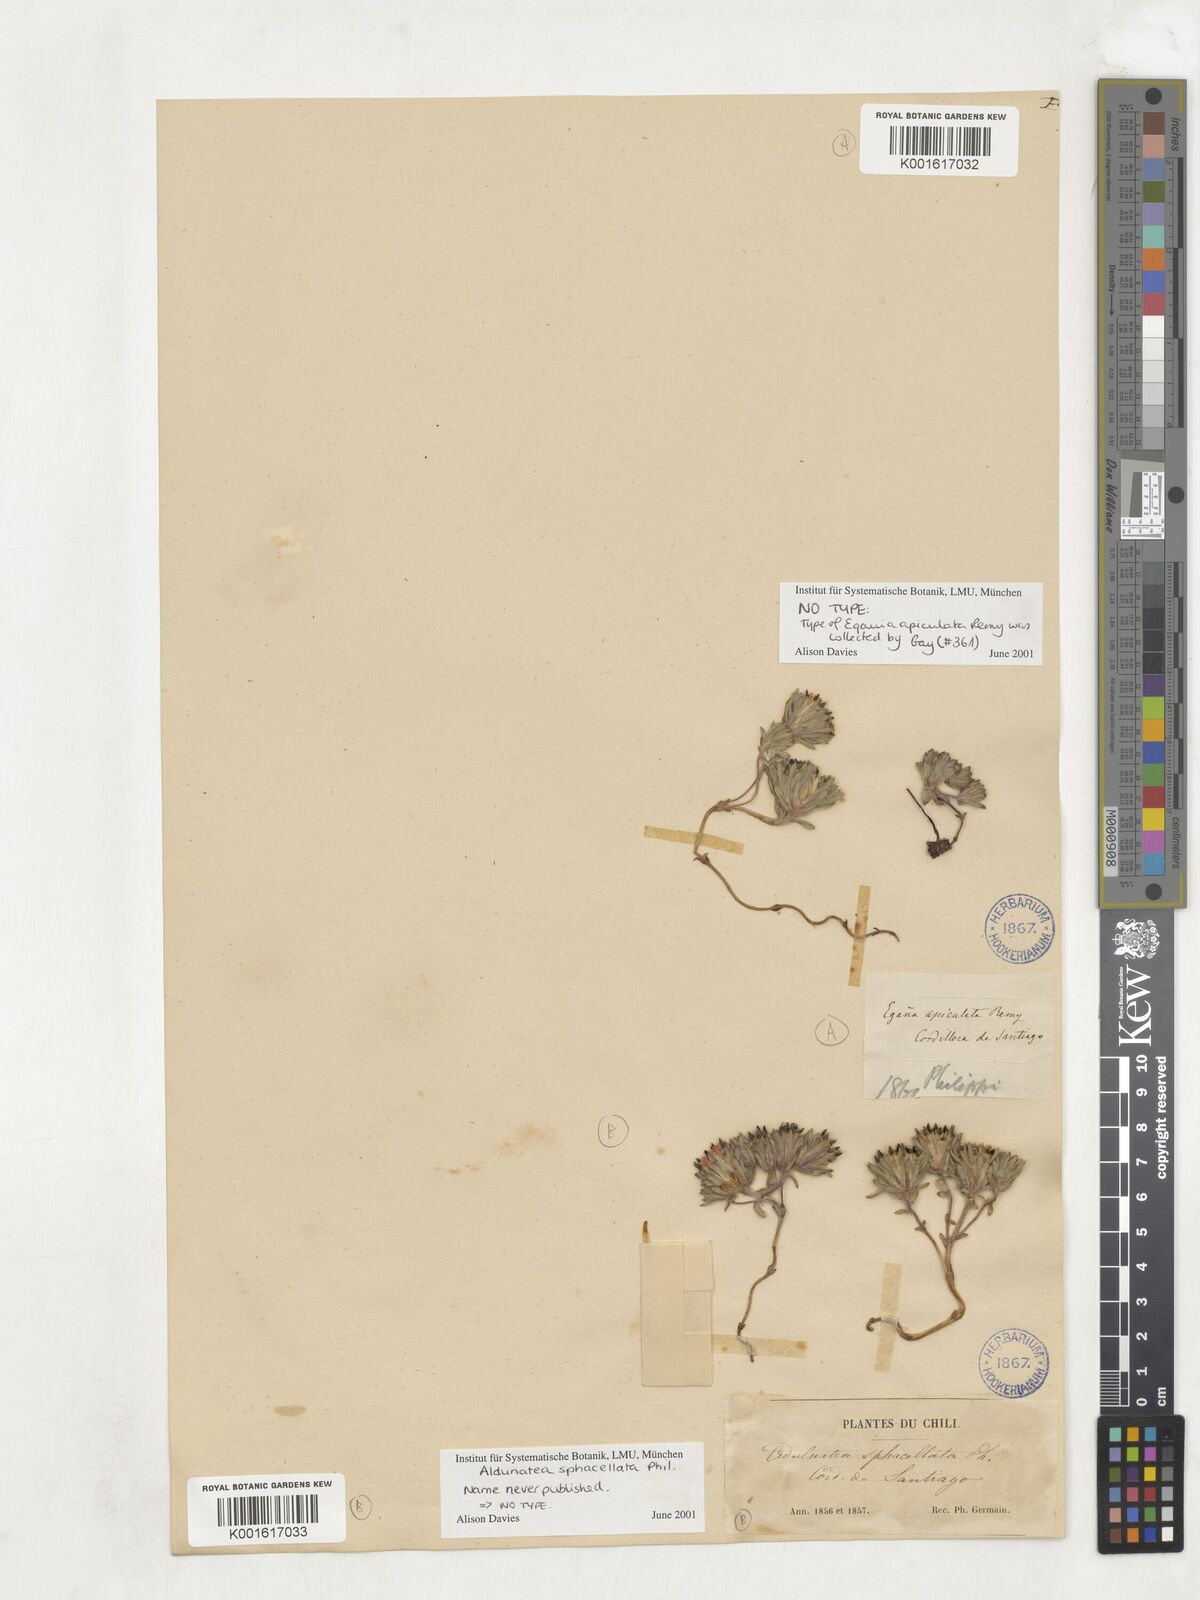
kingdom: Plantae
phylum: Tracheophyta
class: Magnoliopsida
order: Asterales
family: Asteraceae
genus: Oriastrum
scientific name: Oriastrum apiculatum
